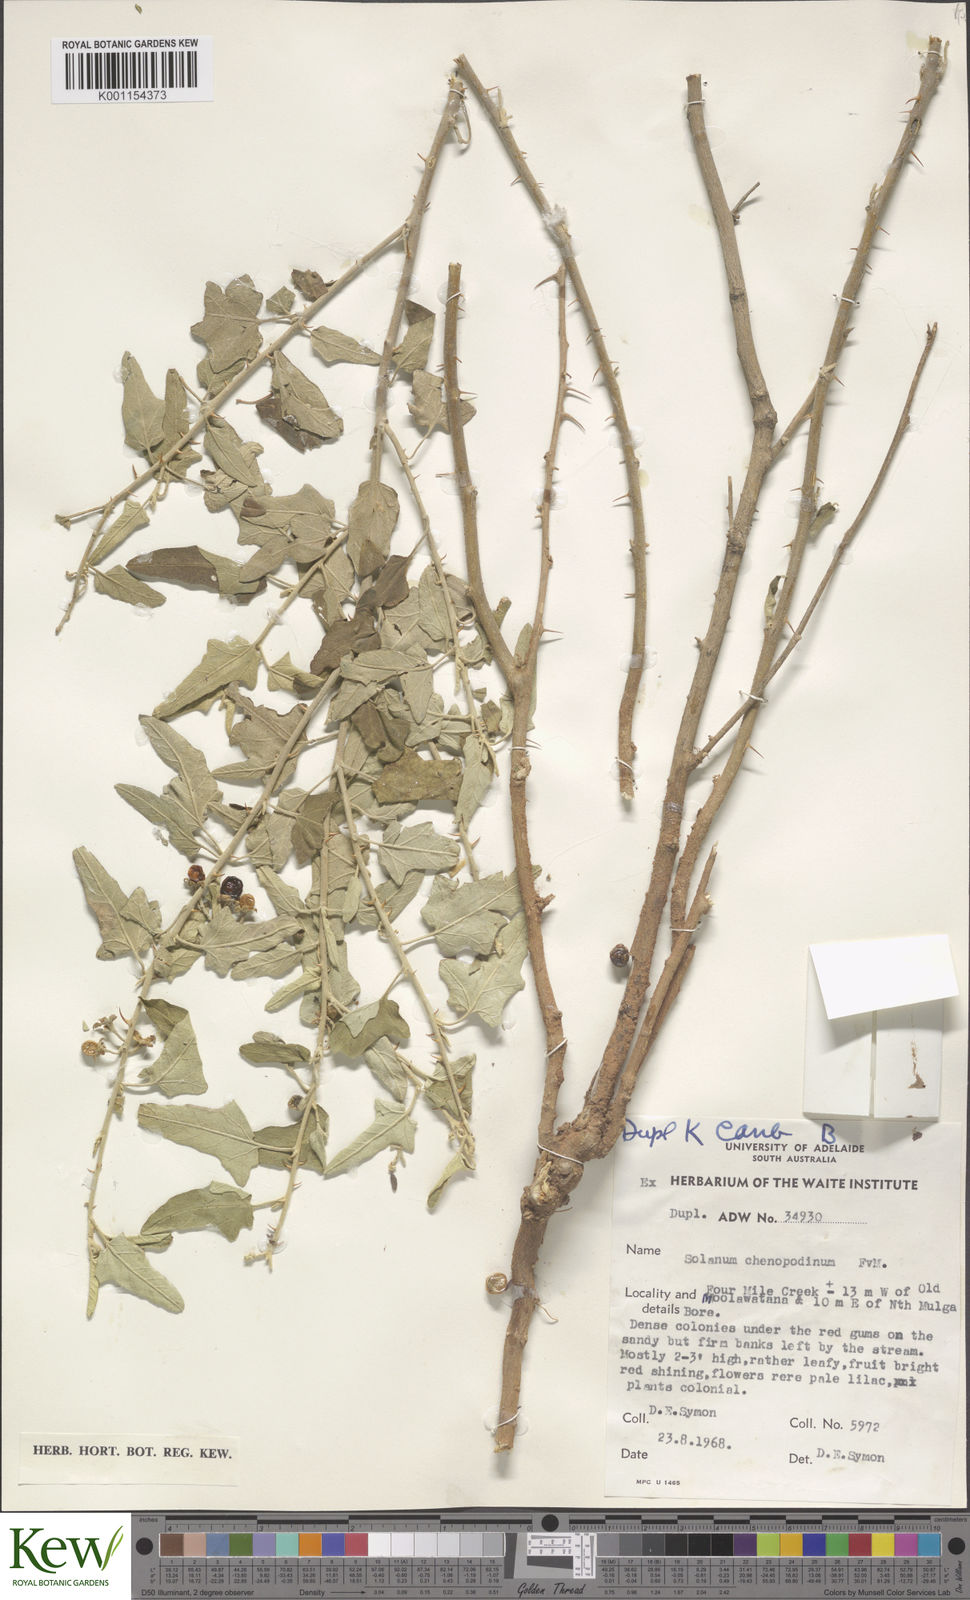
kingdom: Plantae
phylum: Tracheophyta
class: Magnoliopsida
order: Solanales
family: Solanaceae
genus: Solanum
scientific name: Solanum chenopodinum
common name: Goosefoot potato-bush
